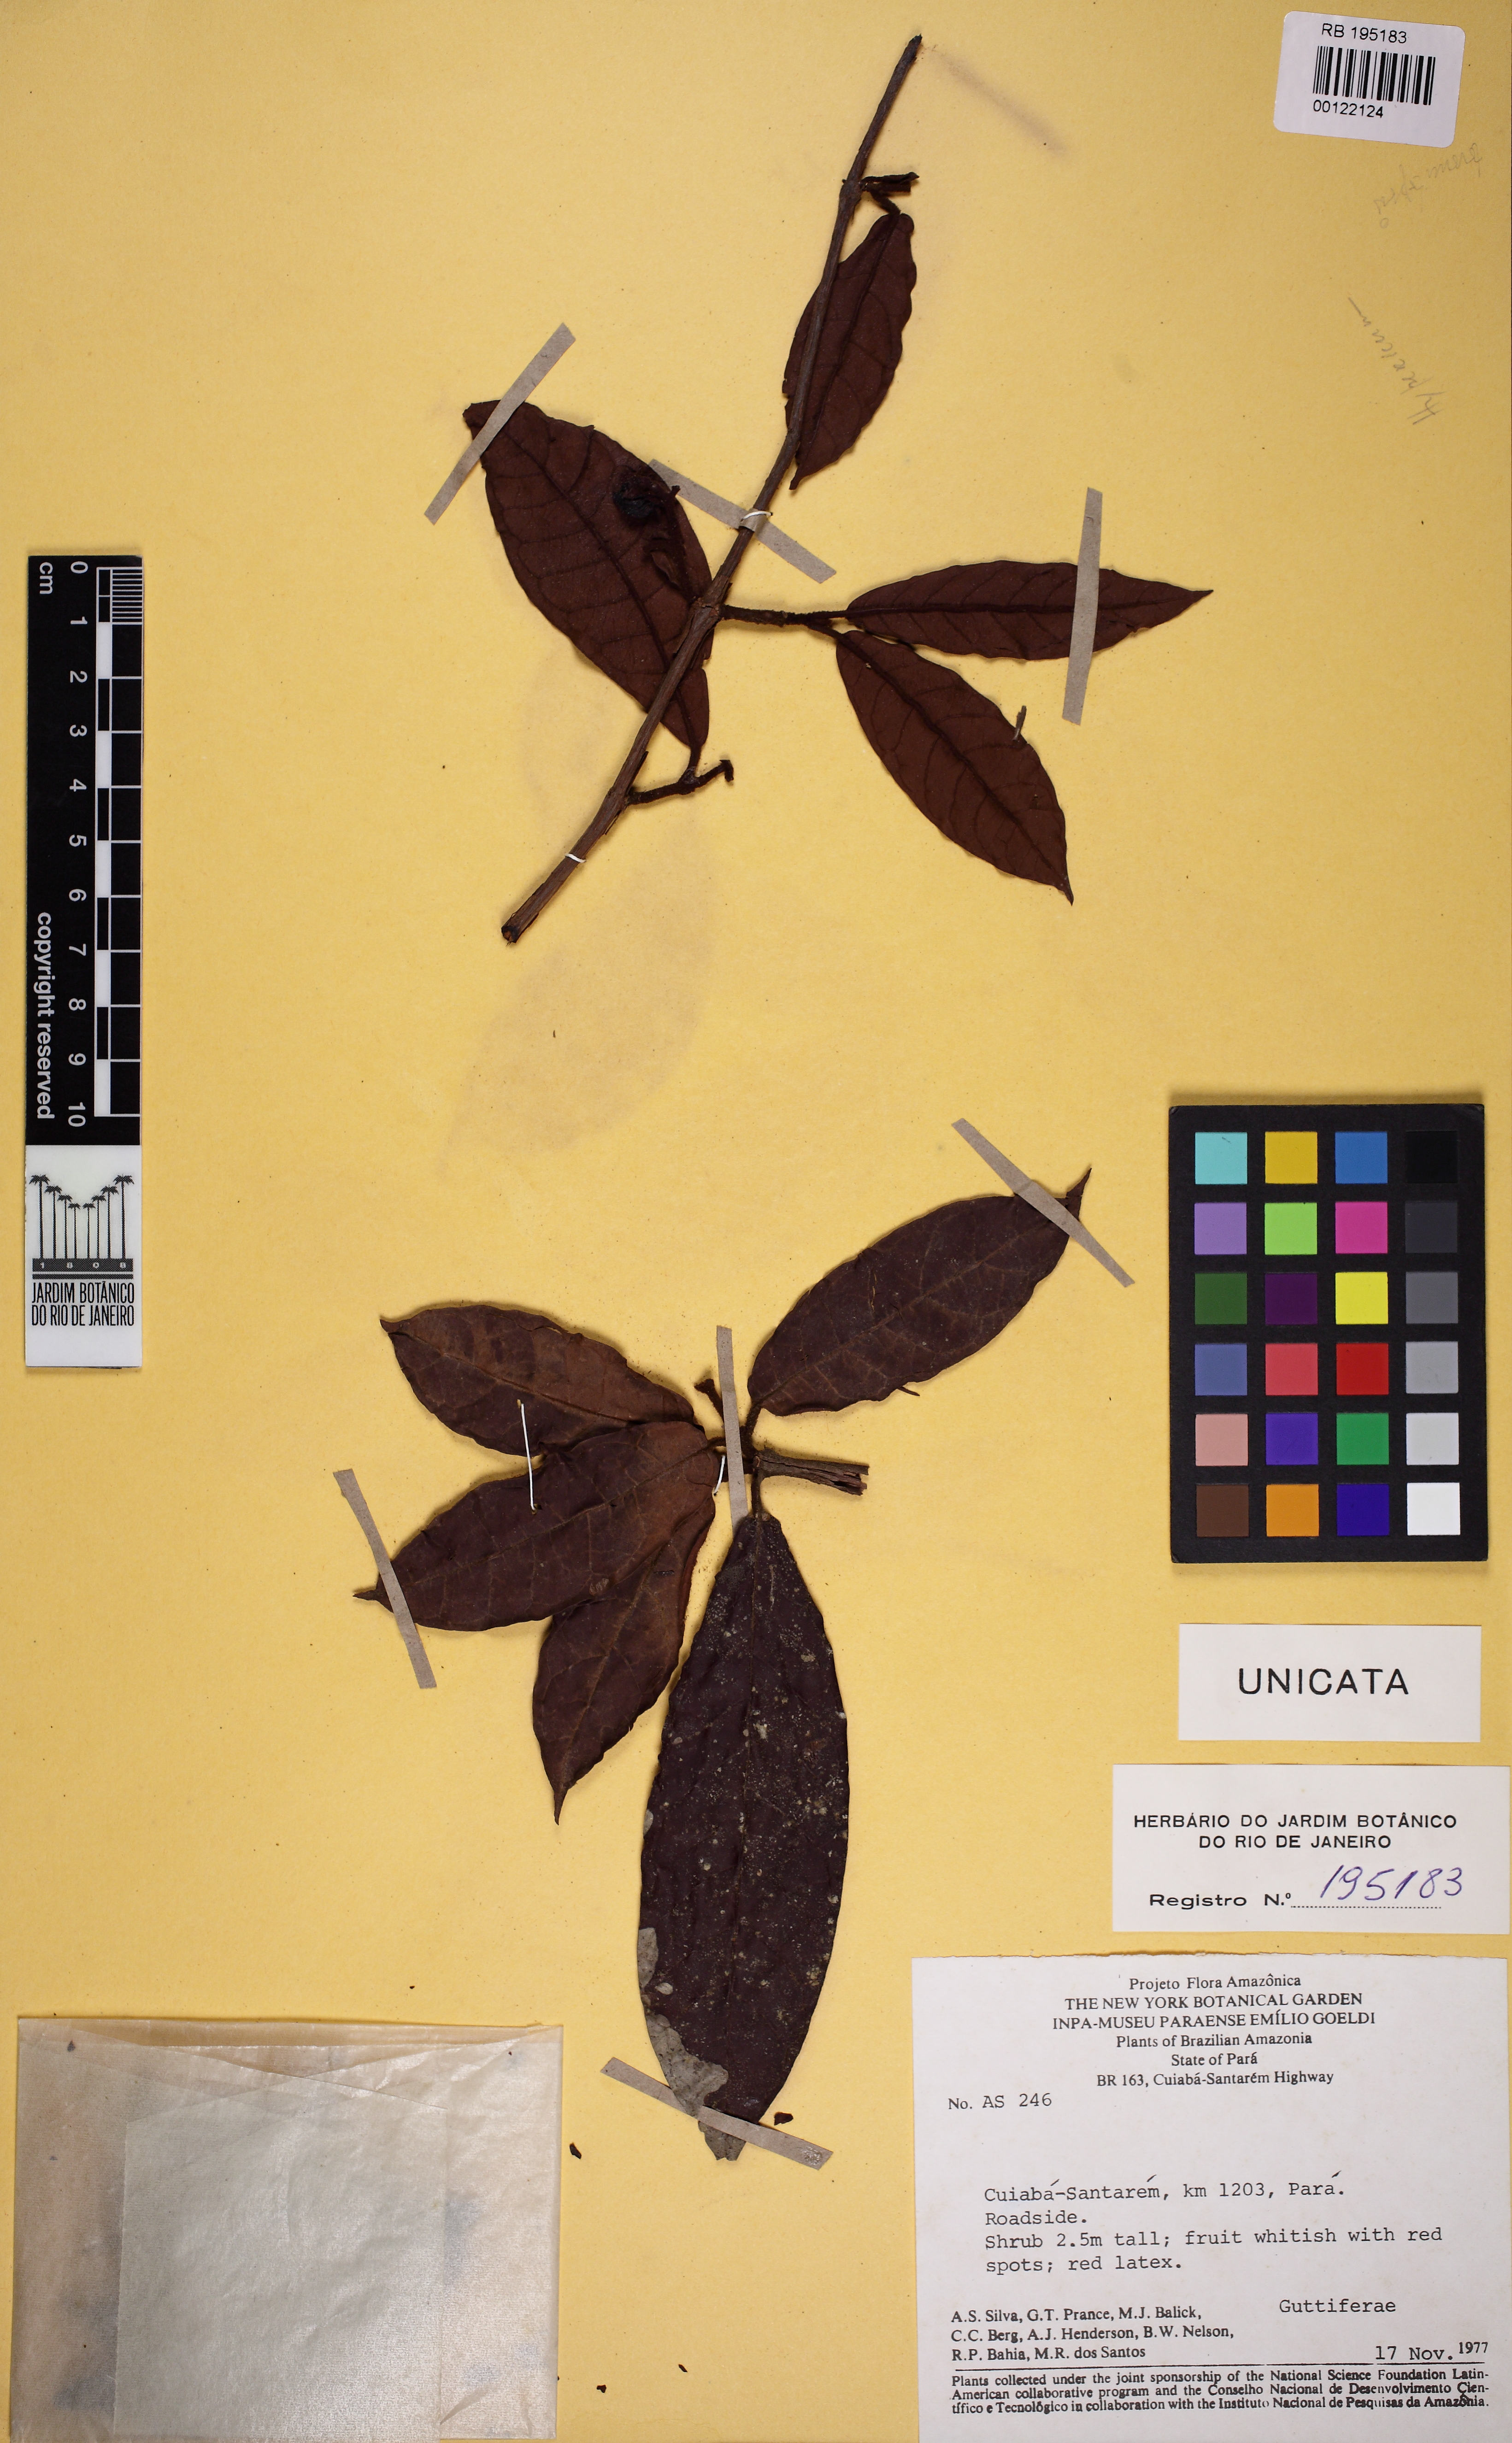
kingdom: Plantae
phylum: Tracheophyta
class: Magnoliopsida
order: Malpighiales
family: Hypericaceae
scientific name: Hypericaceae
